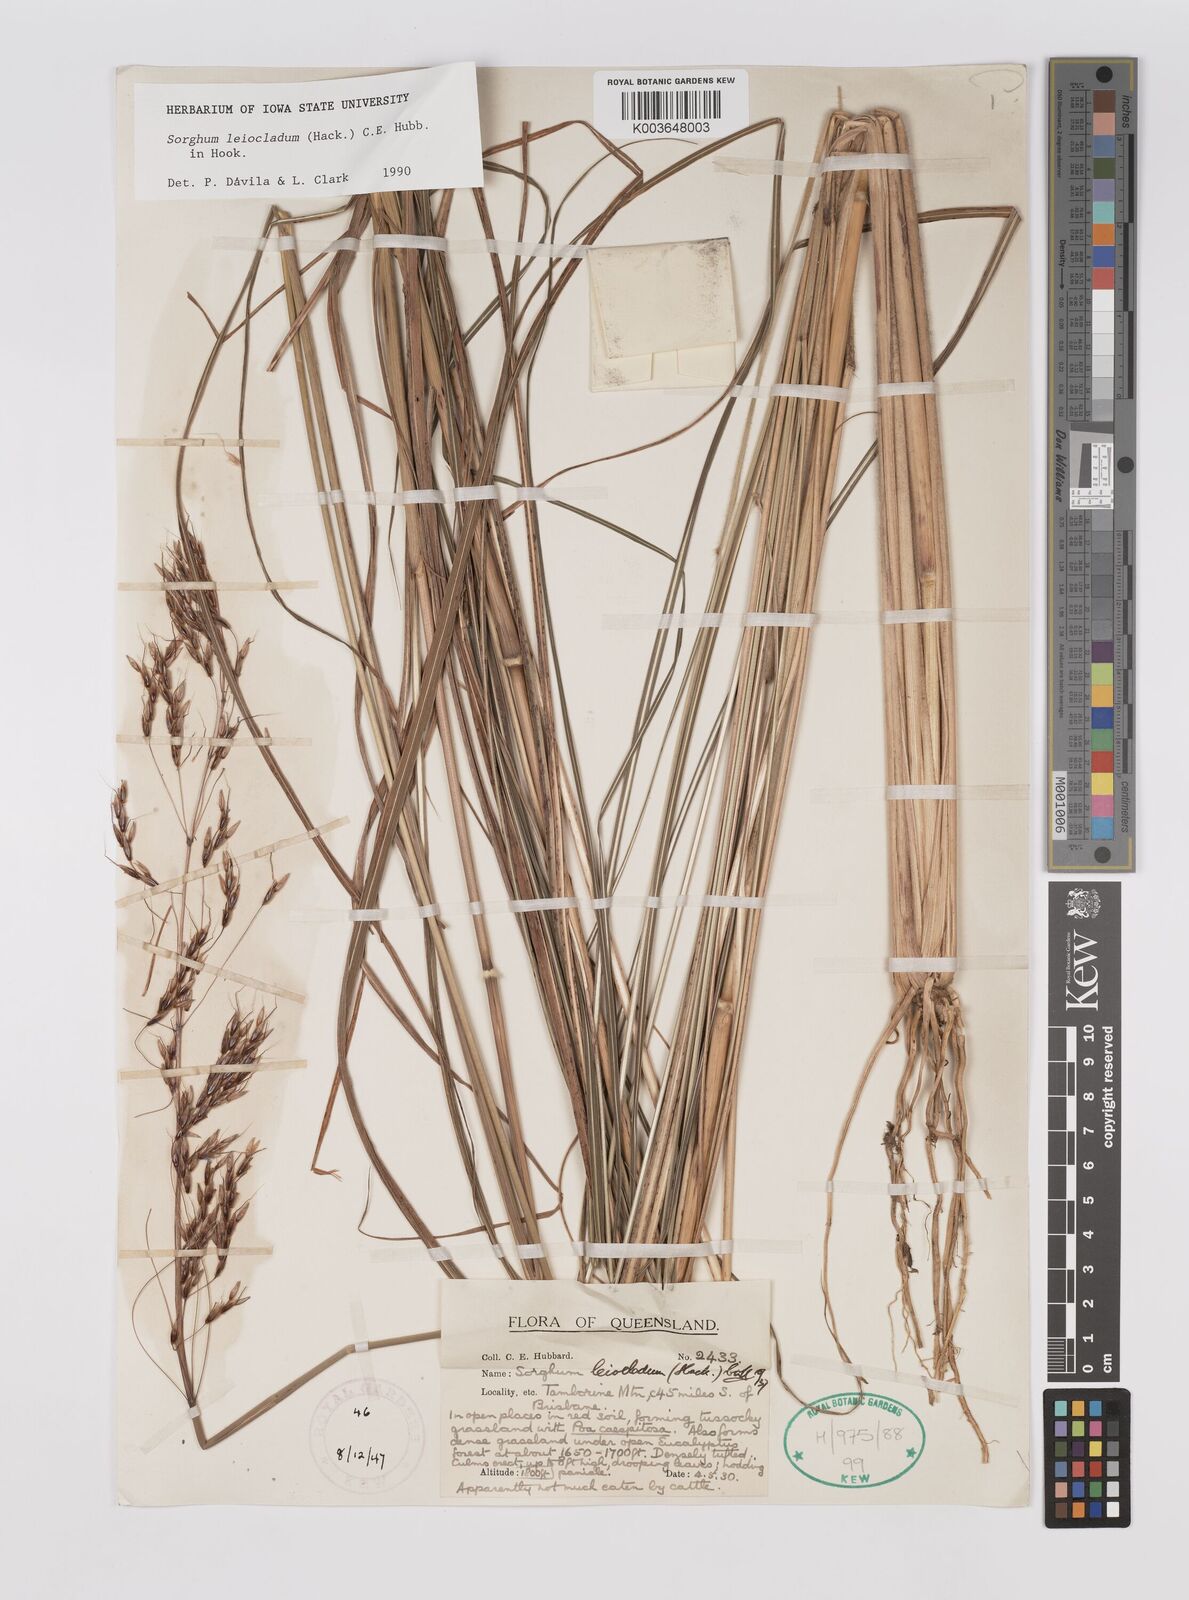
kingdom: Plantae
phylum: Tracheophyta
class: Liliopsida
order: Poales
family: Poaceae
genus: Sarga
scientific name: Sarga leioclada
